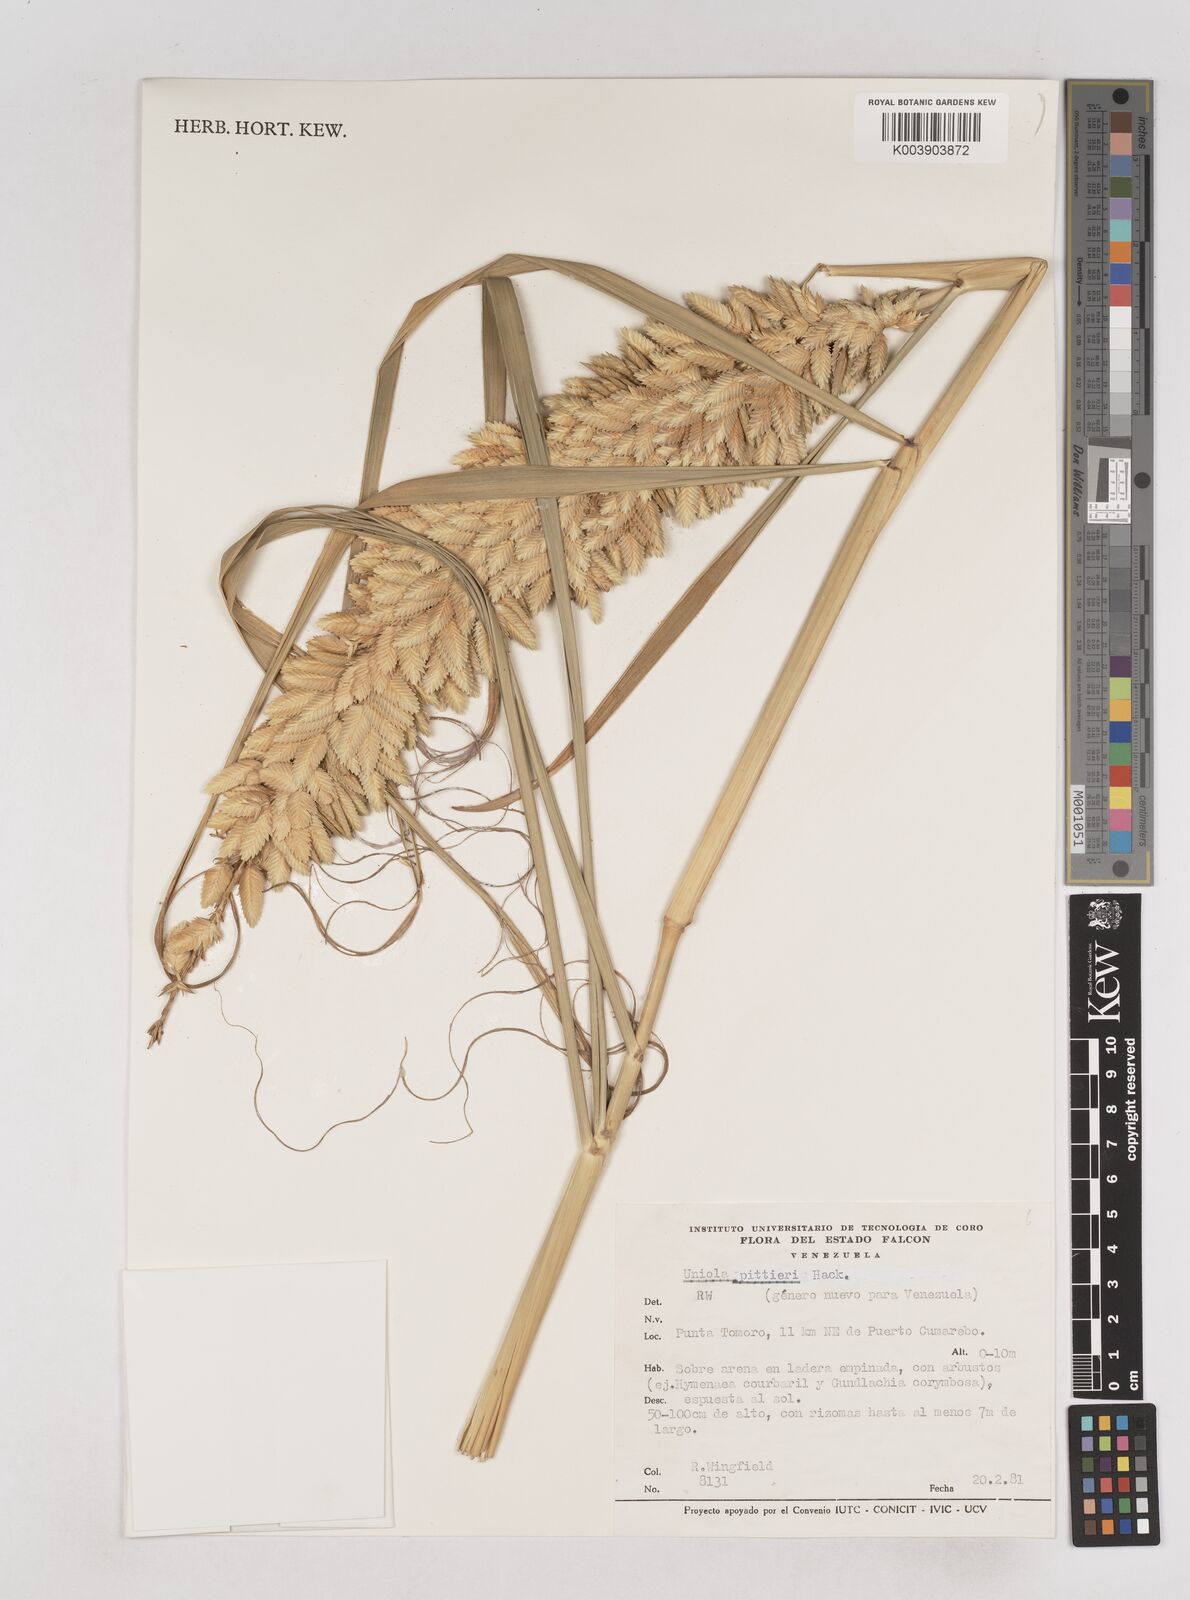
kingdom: Plantae
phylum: Tracheophyta
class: Liliopsida
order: Poales
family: Poaceae
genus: Uniola
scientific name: Uniola pittieri
